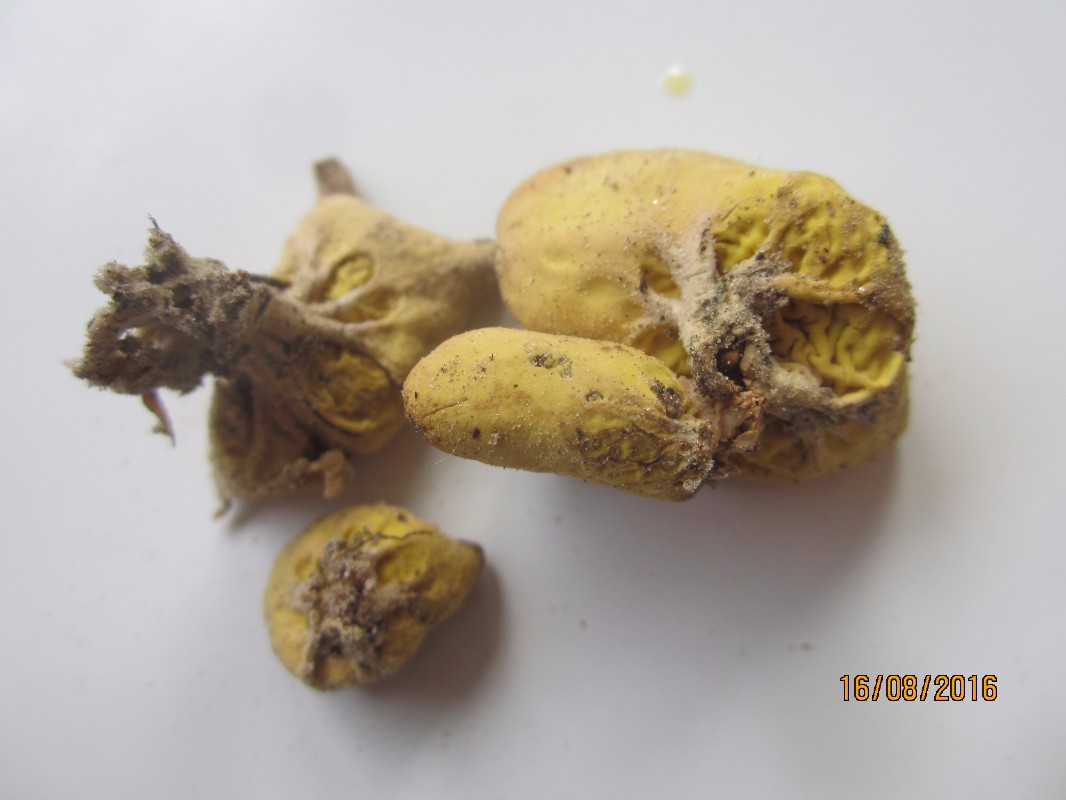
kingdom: Fungi
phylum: Ascomycota
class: Pezizomycetes
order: Pezizales
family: Otideaceae
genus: Otidea
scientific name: Otidea phlebophora
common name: året ørebæger
